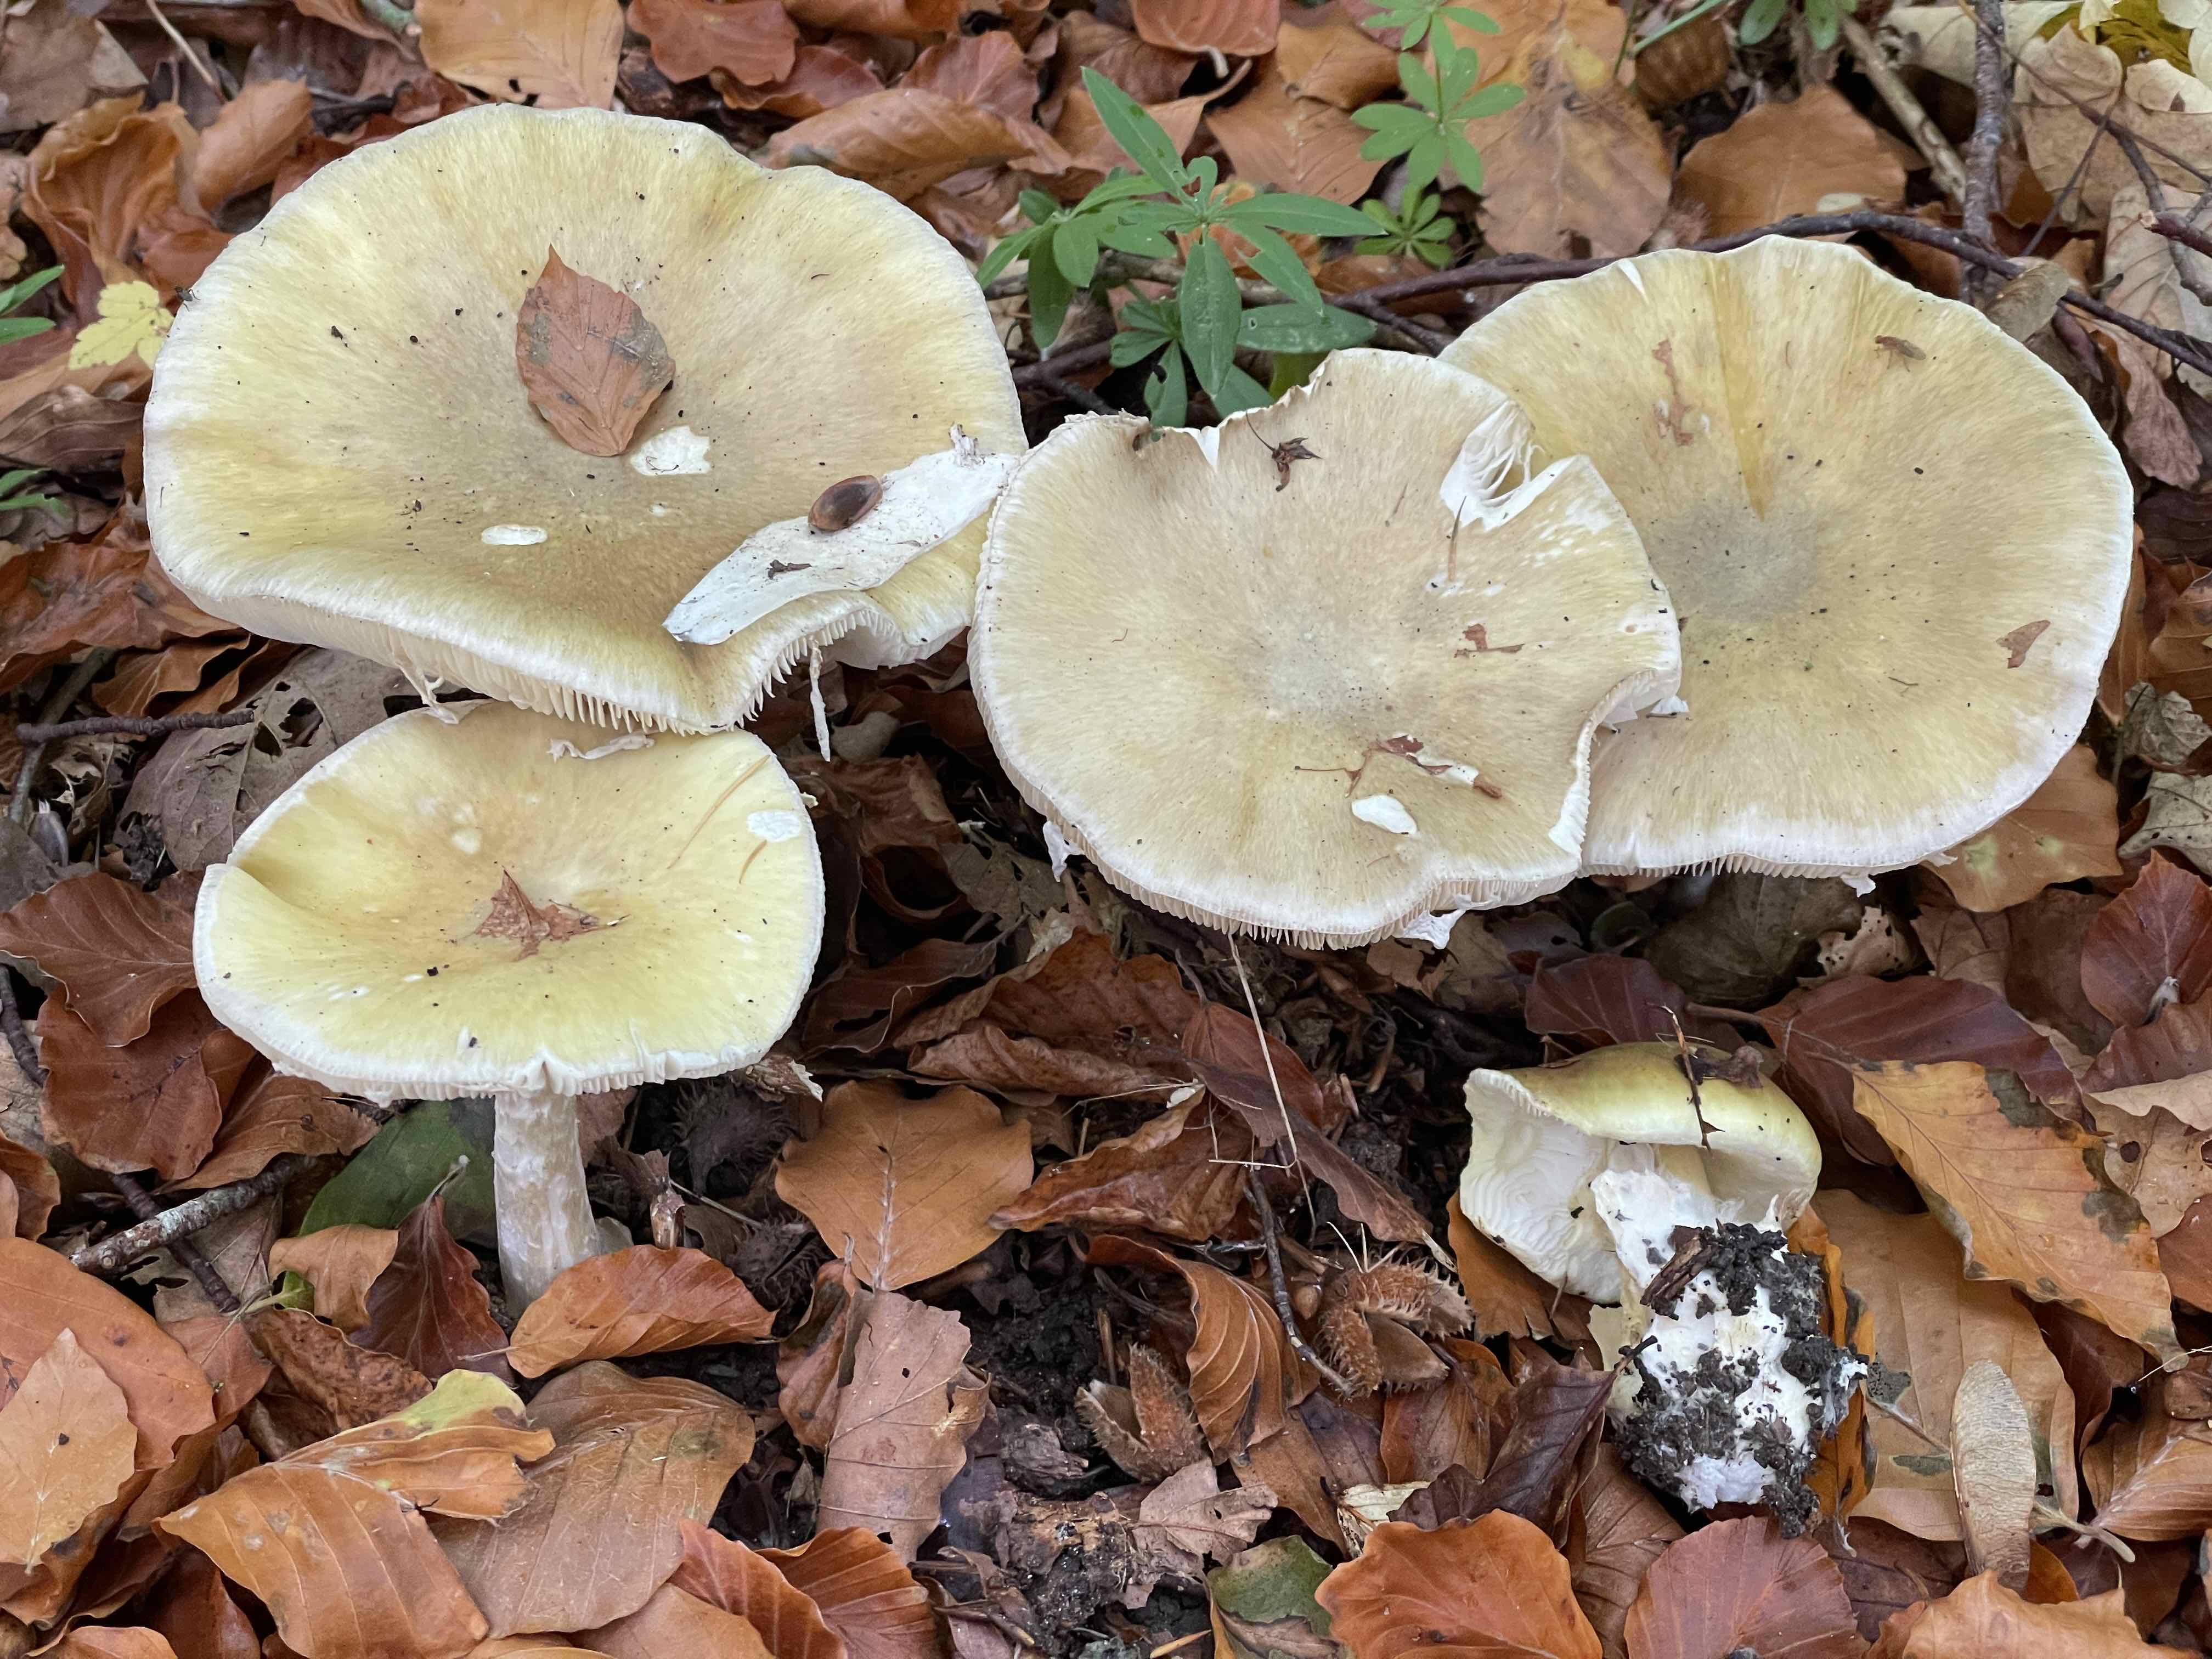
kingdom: Fungi
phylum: Basidiomycota
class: Agaricomycetes
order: Agaricales
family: Amanitaceae
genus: Amanita
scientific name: Amanita phalloides
